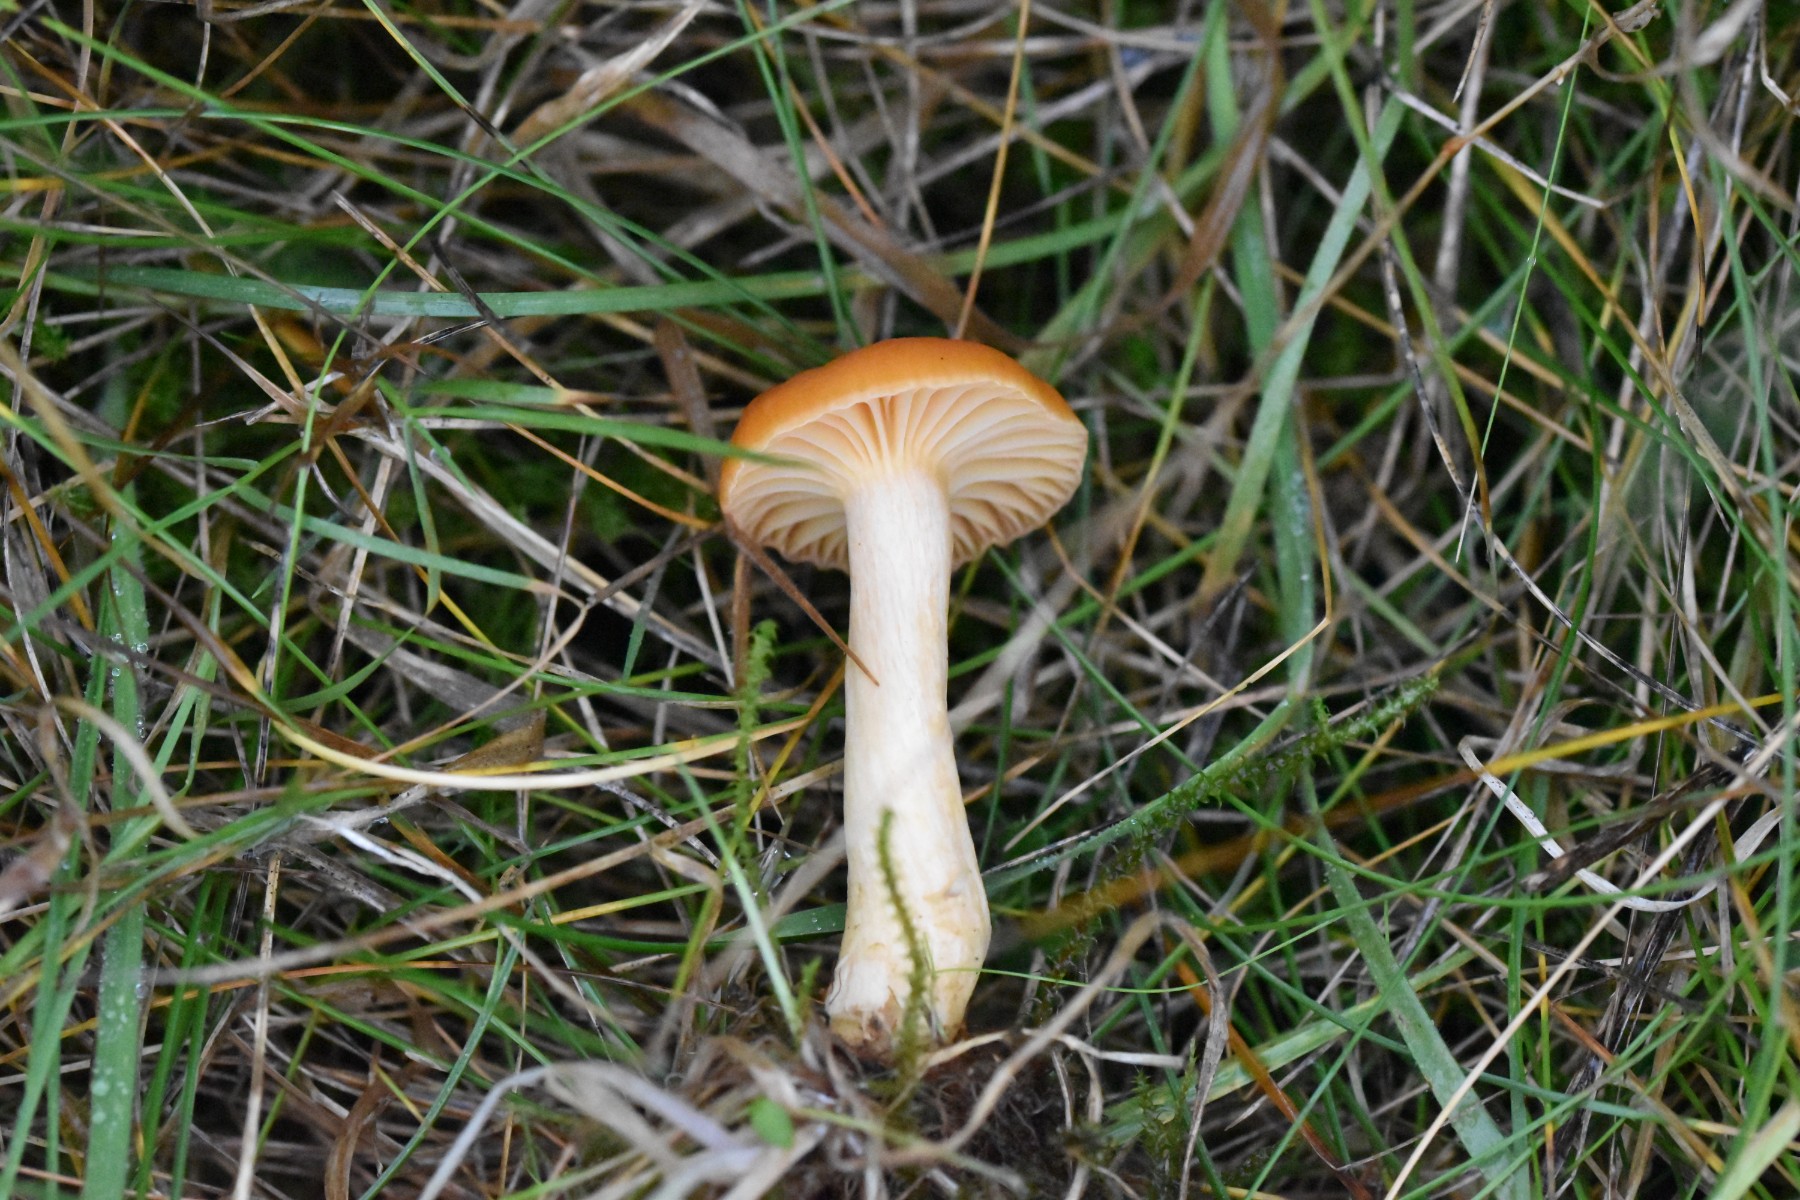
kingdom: Fungi
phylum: Basidiomycota
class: Agaricomycetes
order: Agaricales
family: Hygrophoraceae
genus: Cuphophyllus
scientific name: Cuphophyllus pratensis
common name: eng-vokshat
